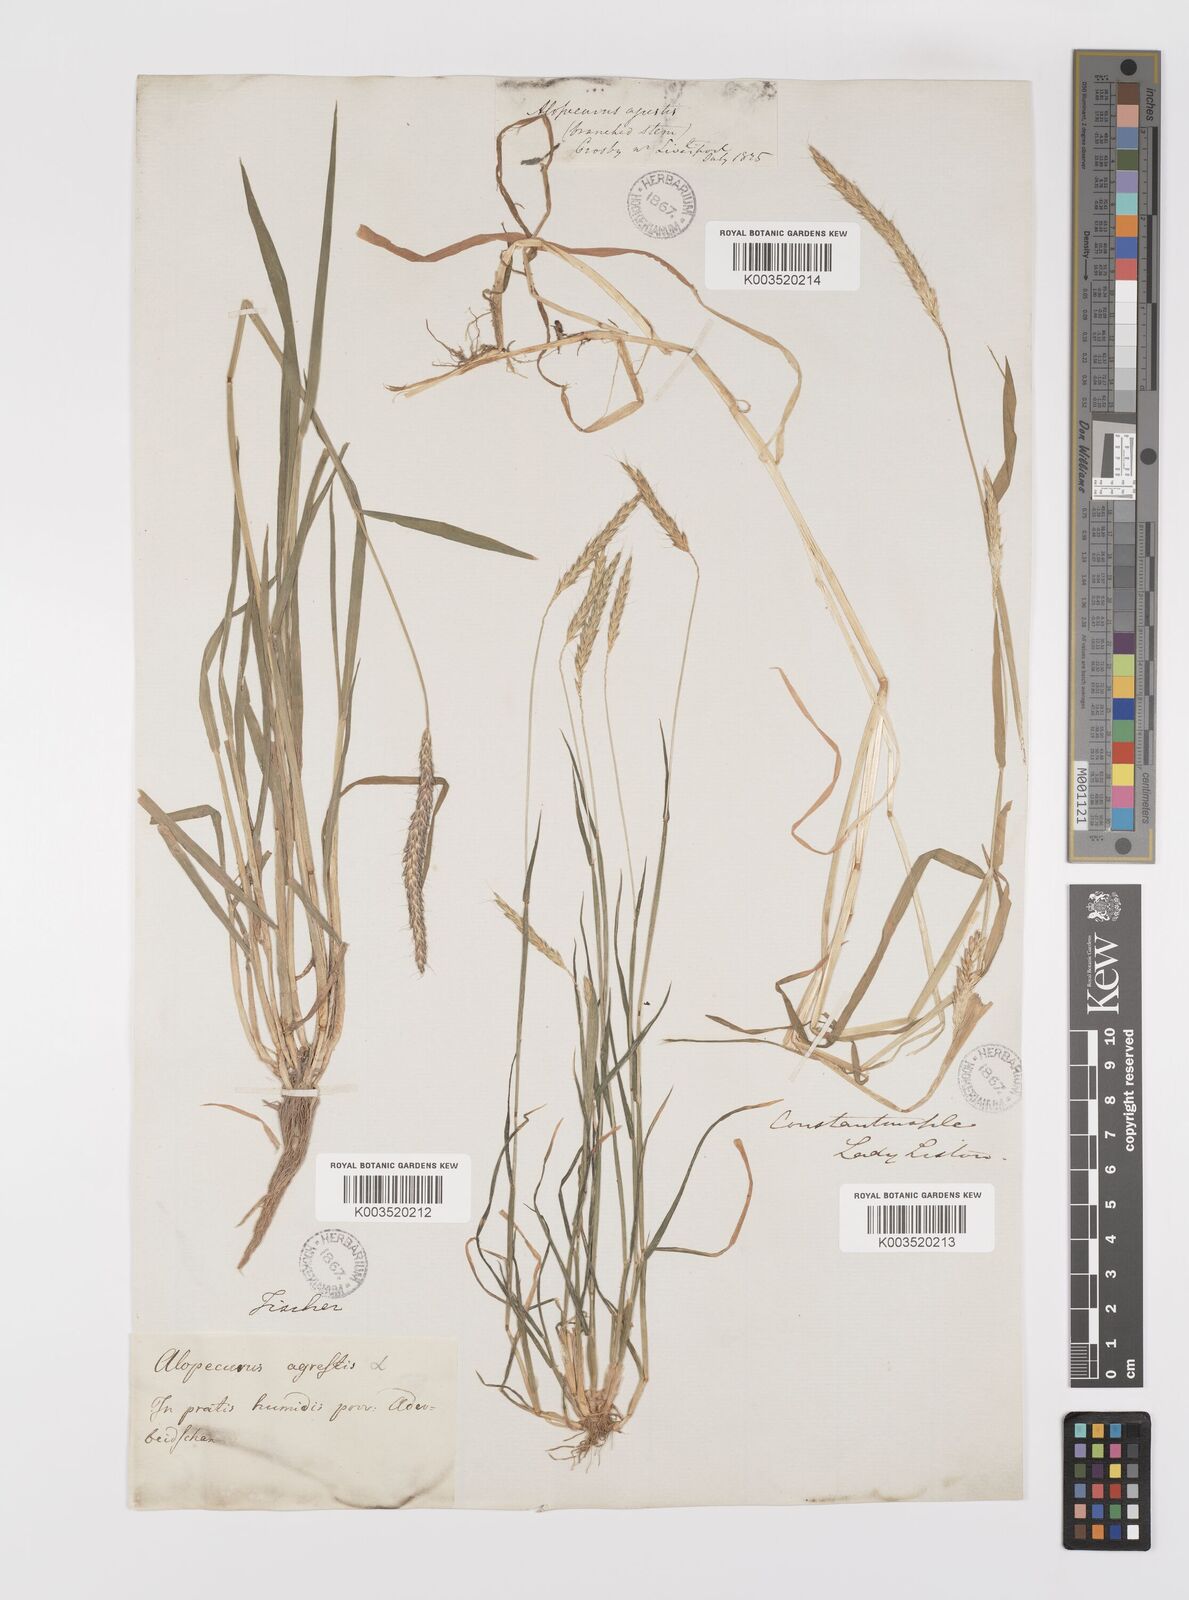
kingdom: Plantae
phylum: Tracheophyta
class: Liliopsida
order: Poales
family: Poaceae
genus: Alopecurus
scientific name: Alopecurus myosuroides
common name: Black-grass
